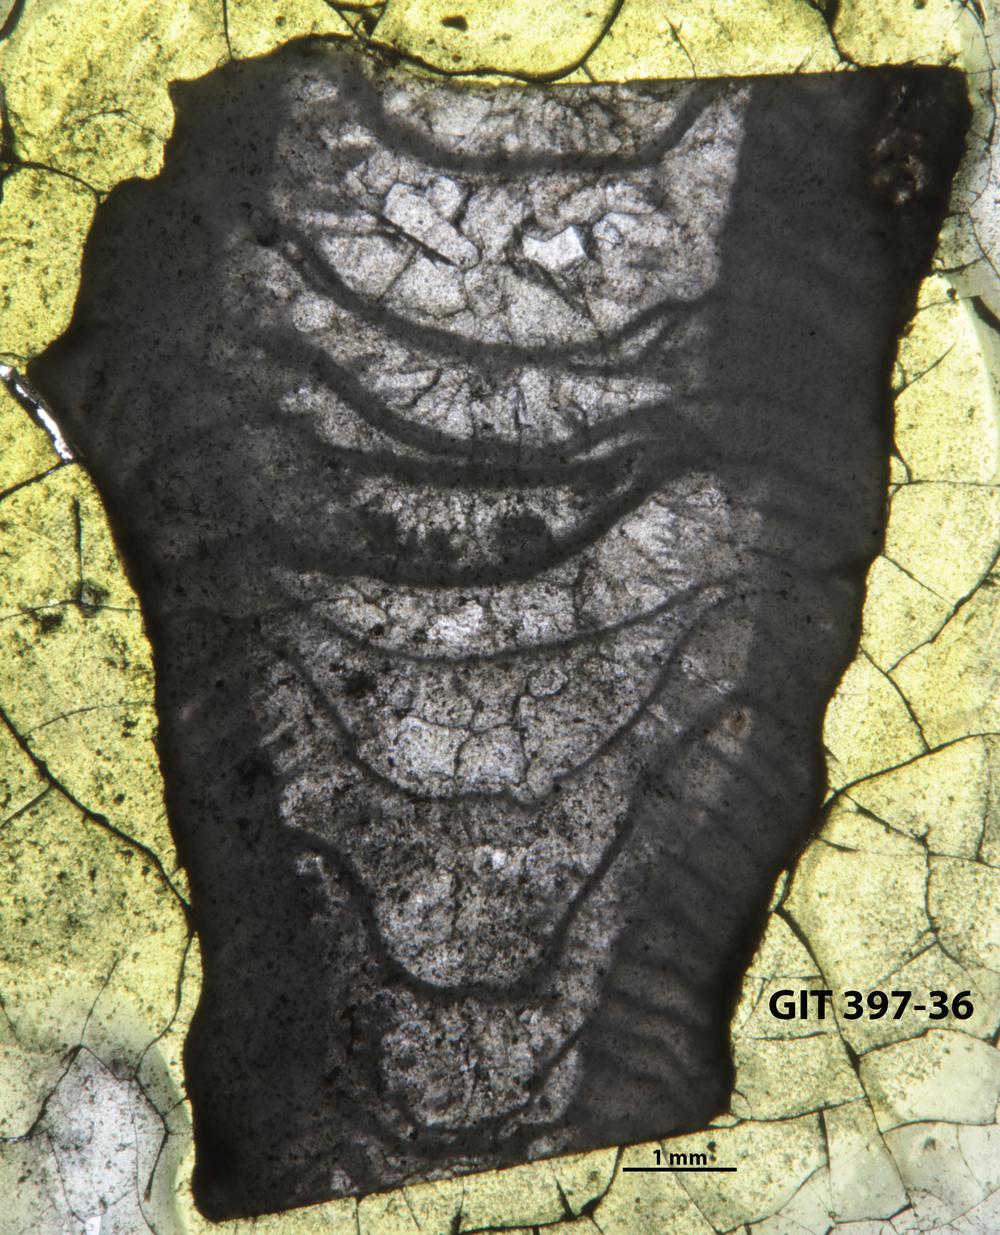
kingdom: Animalia
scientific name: Animalia
